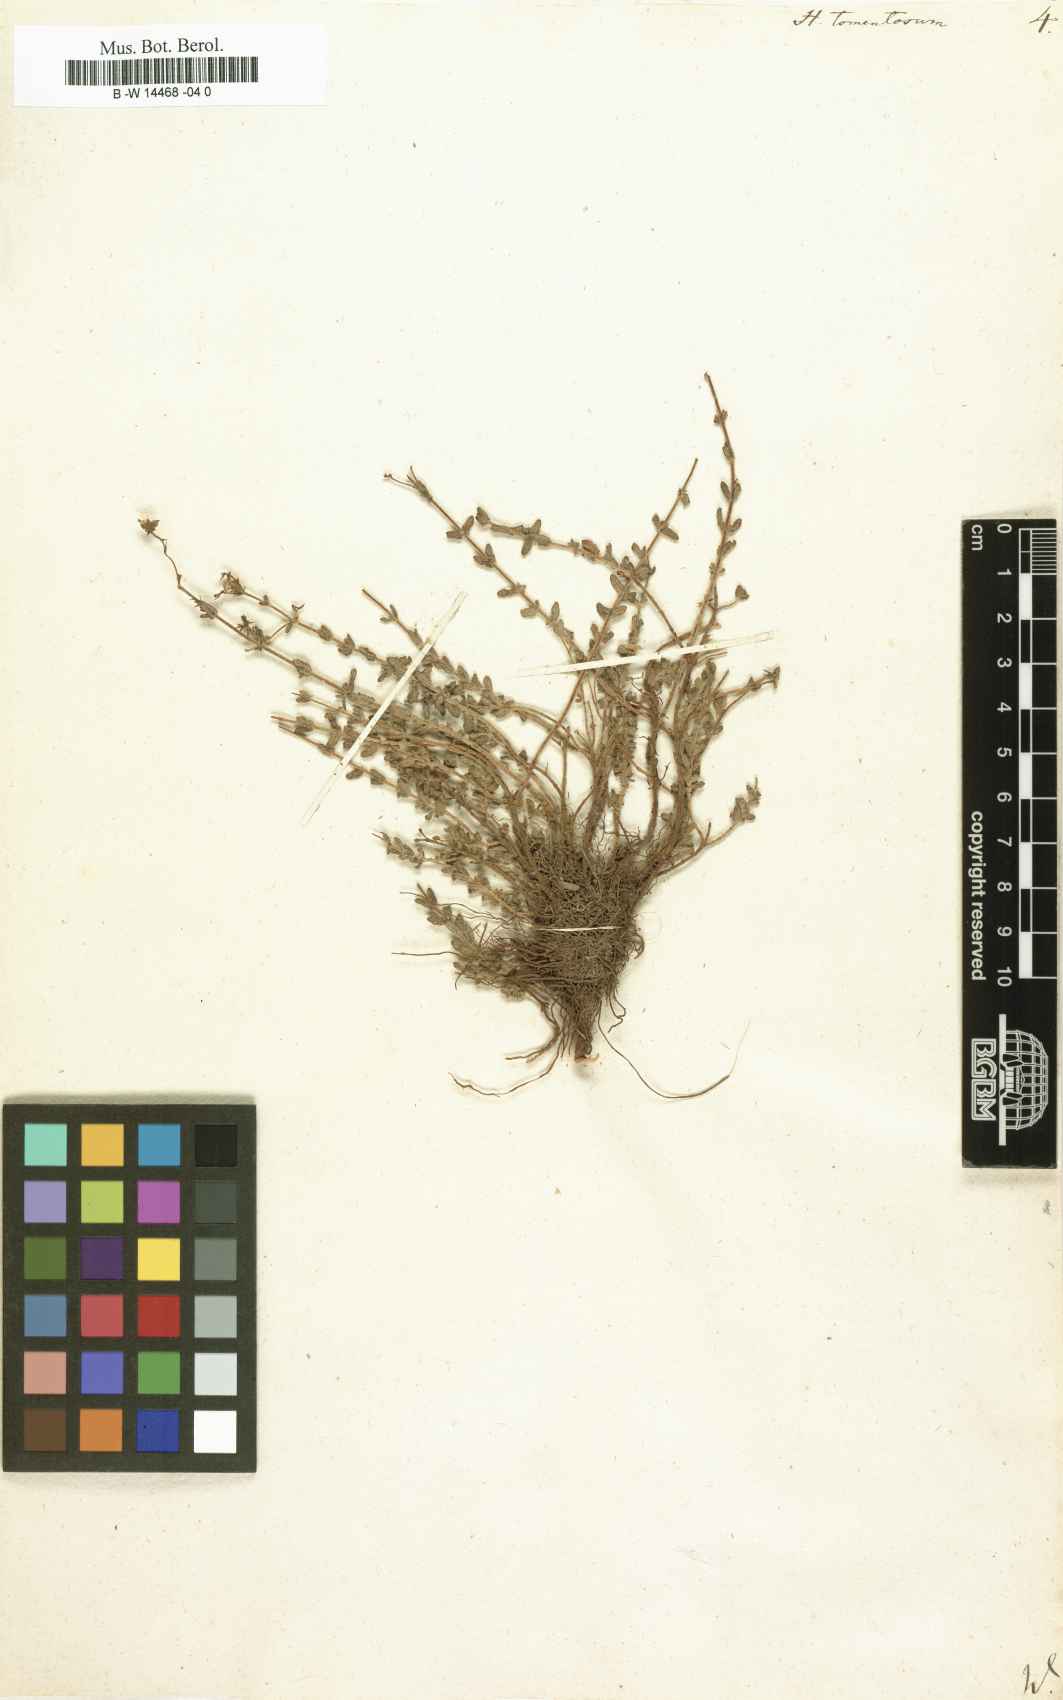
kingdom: Plantae
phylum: Tracheophyta
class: Magnoliopsida
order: Malpighiales
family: Hypericaceae
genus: Hypericum
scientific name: Hypericum tomentosum
